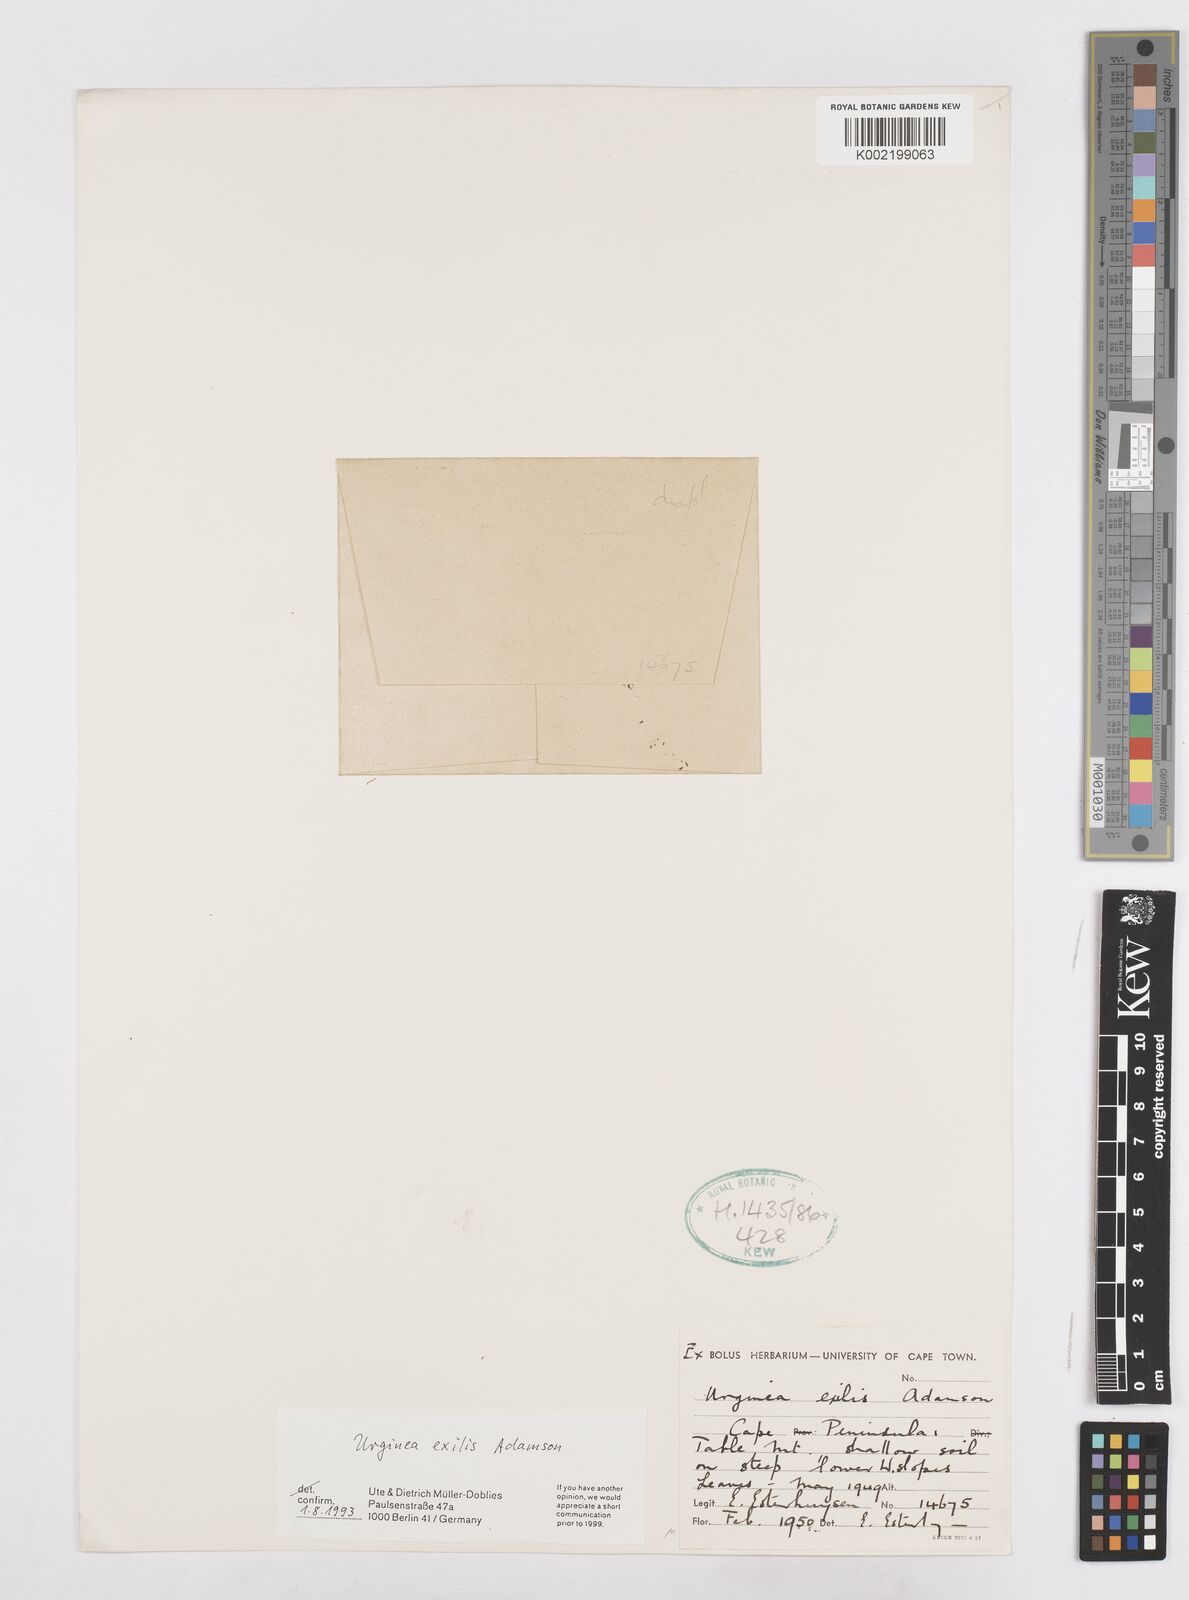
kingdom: Plantae
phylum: Tracheophyta
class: Liliopsida
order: Asparagales
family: Asparagaceae
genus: Drimia
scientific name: Drimia
